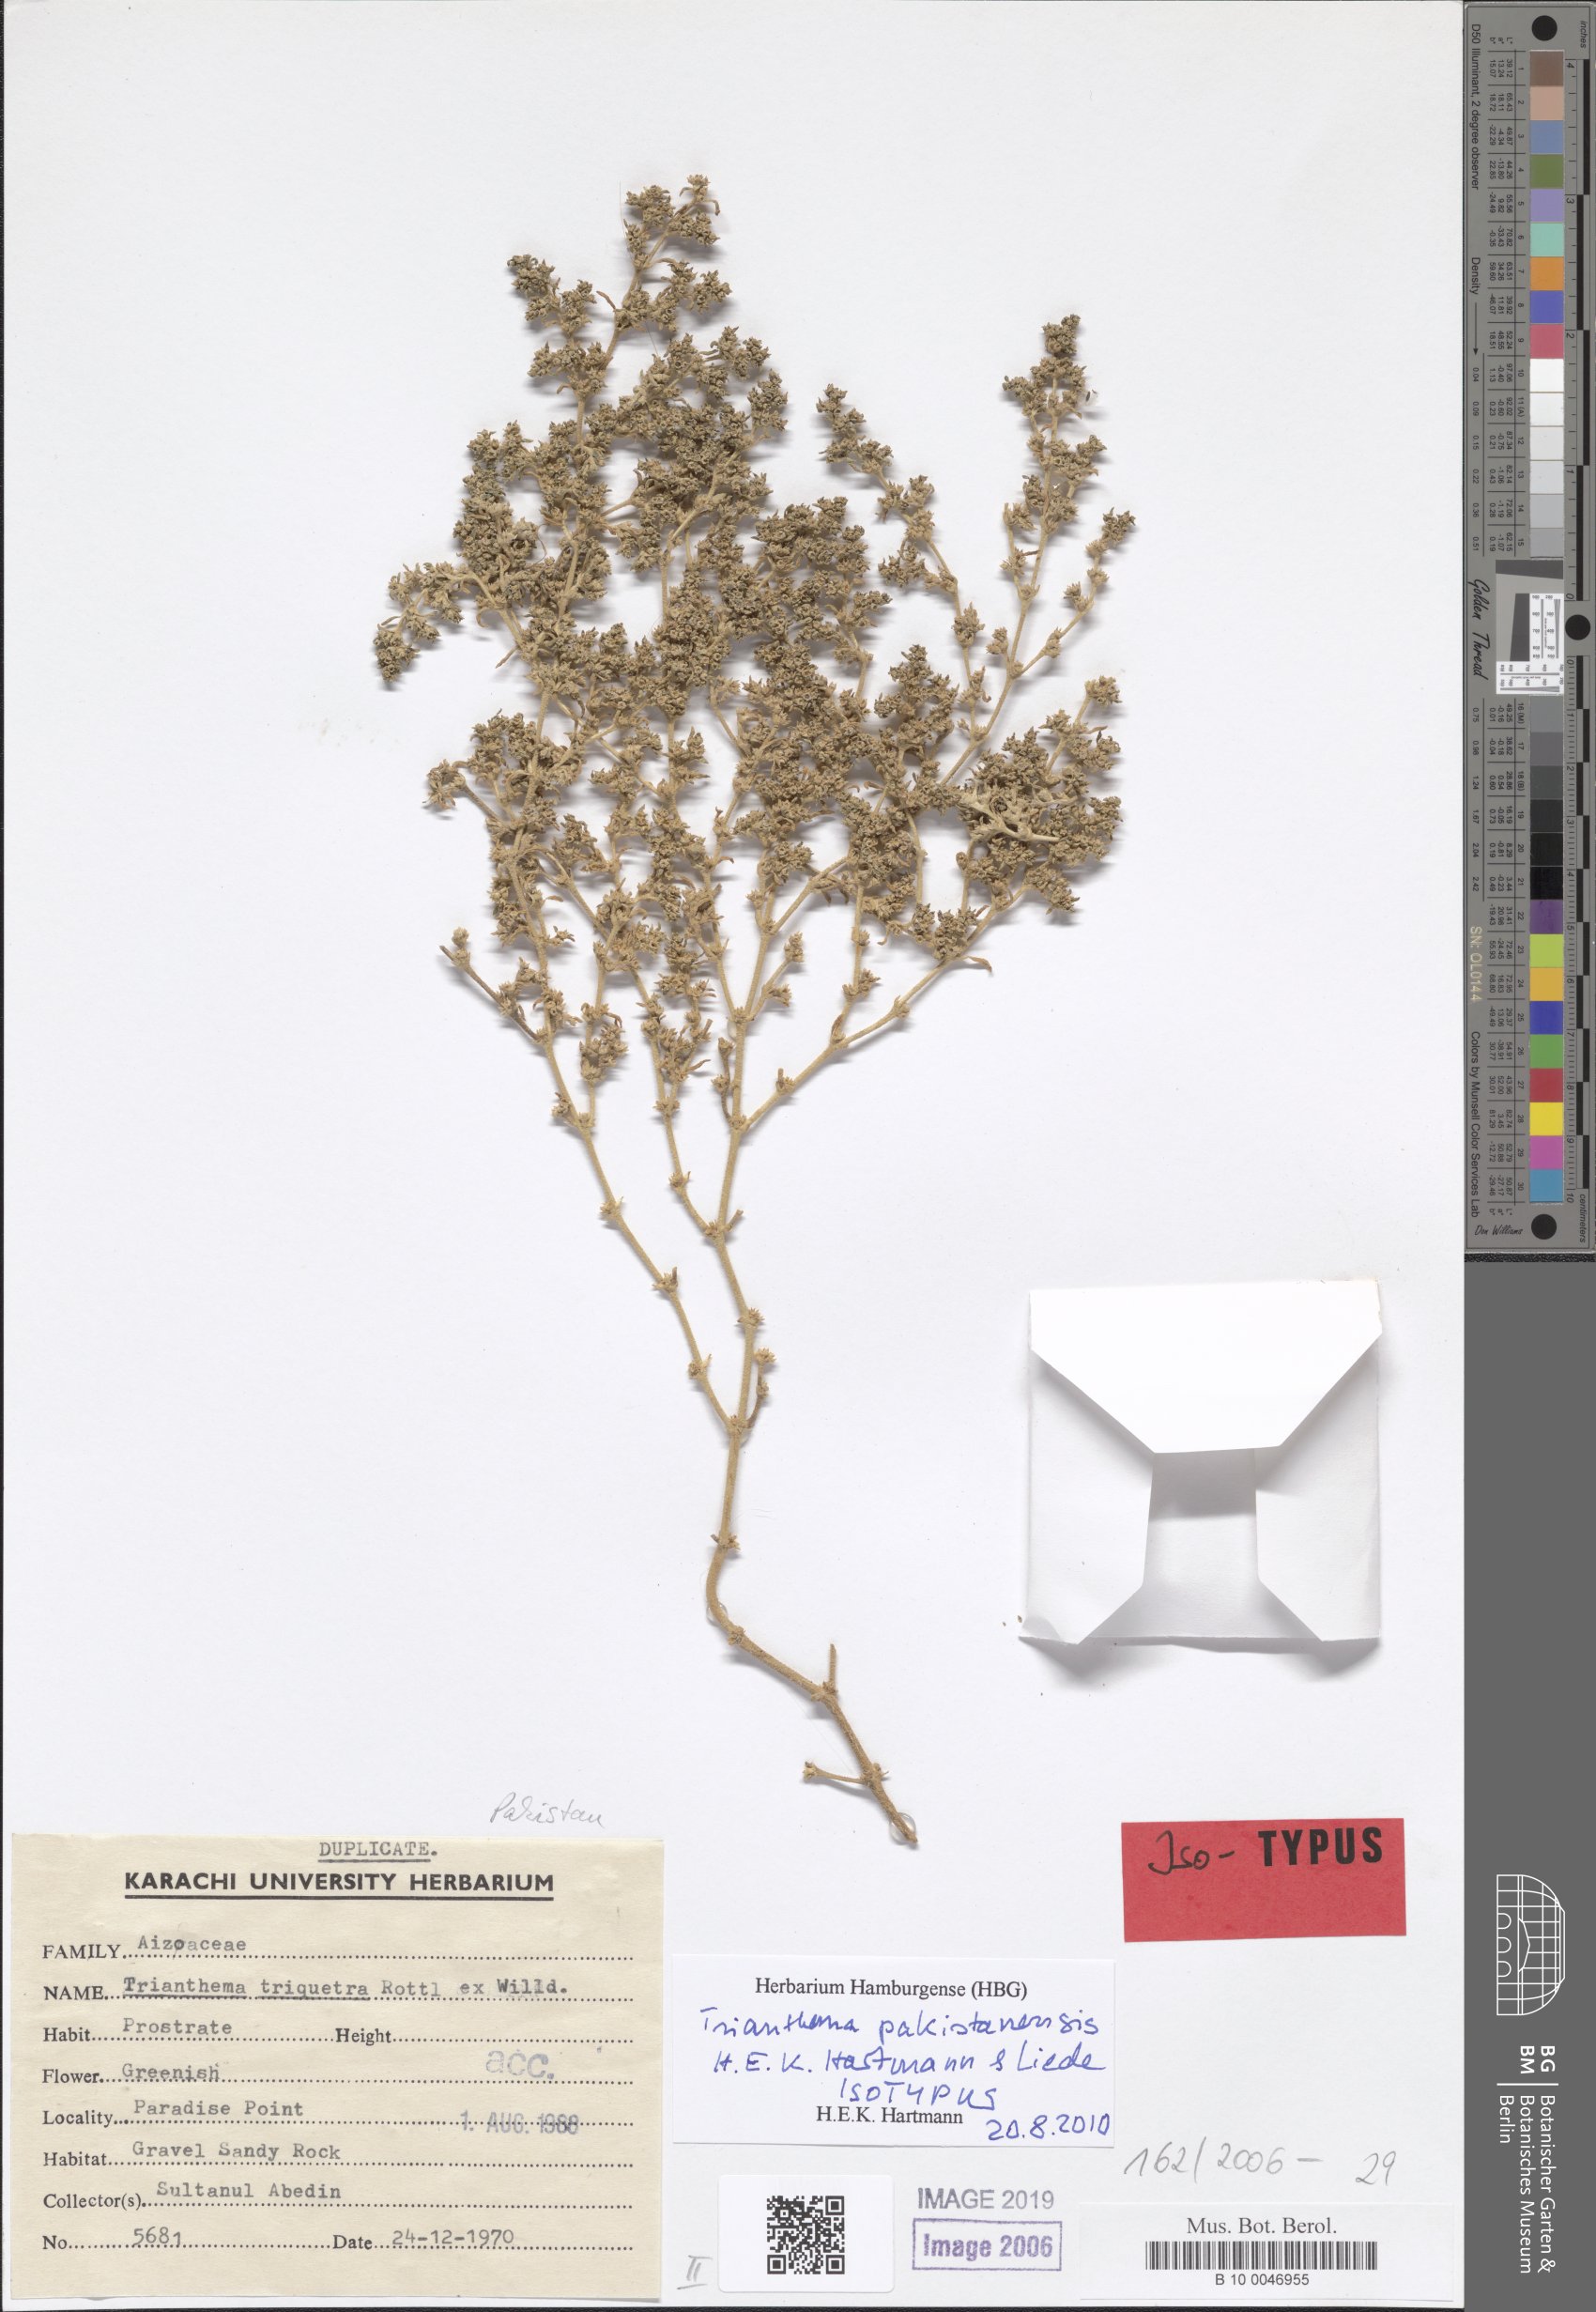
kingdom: Plantae
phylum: Tracheophyta
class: Magnoliopsida
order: Caryophyllales
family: Aizoaceae
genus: Trianthema
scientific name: Trianthema pakistanensis
